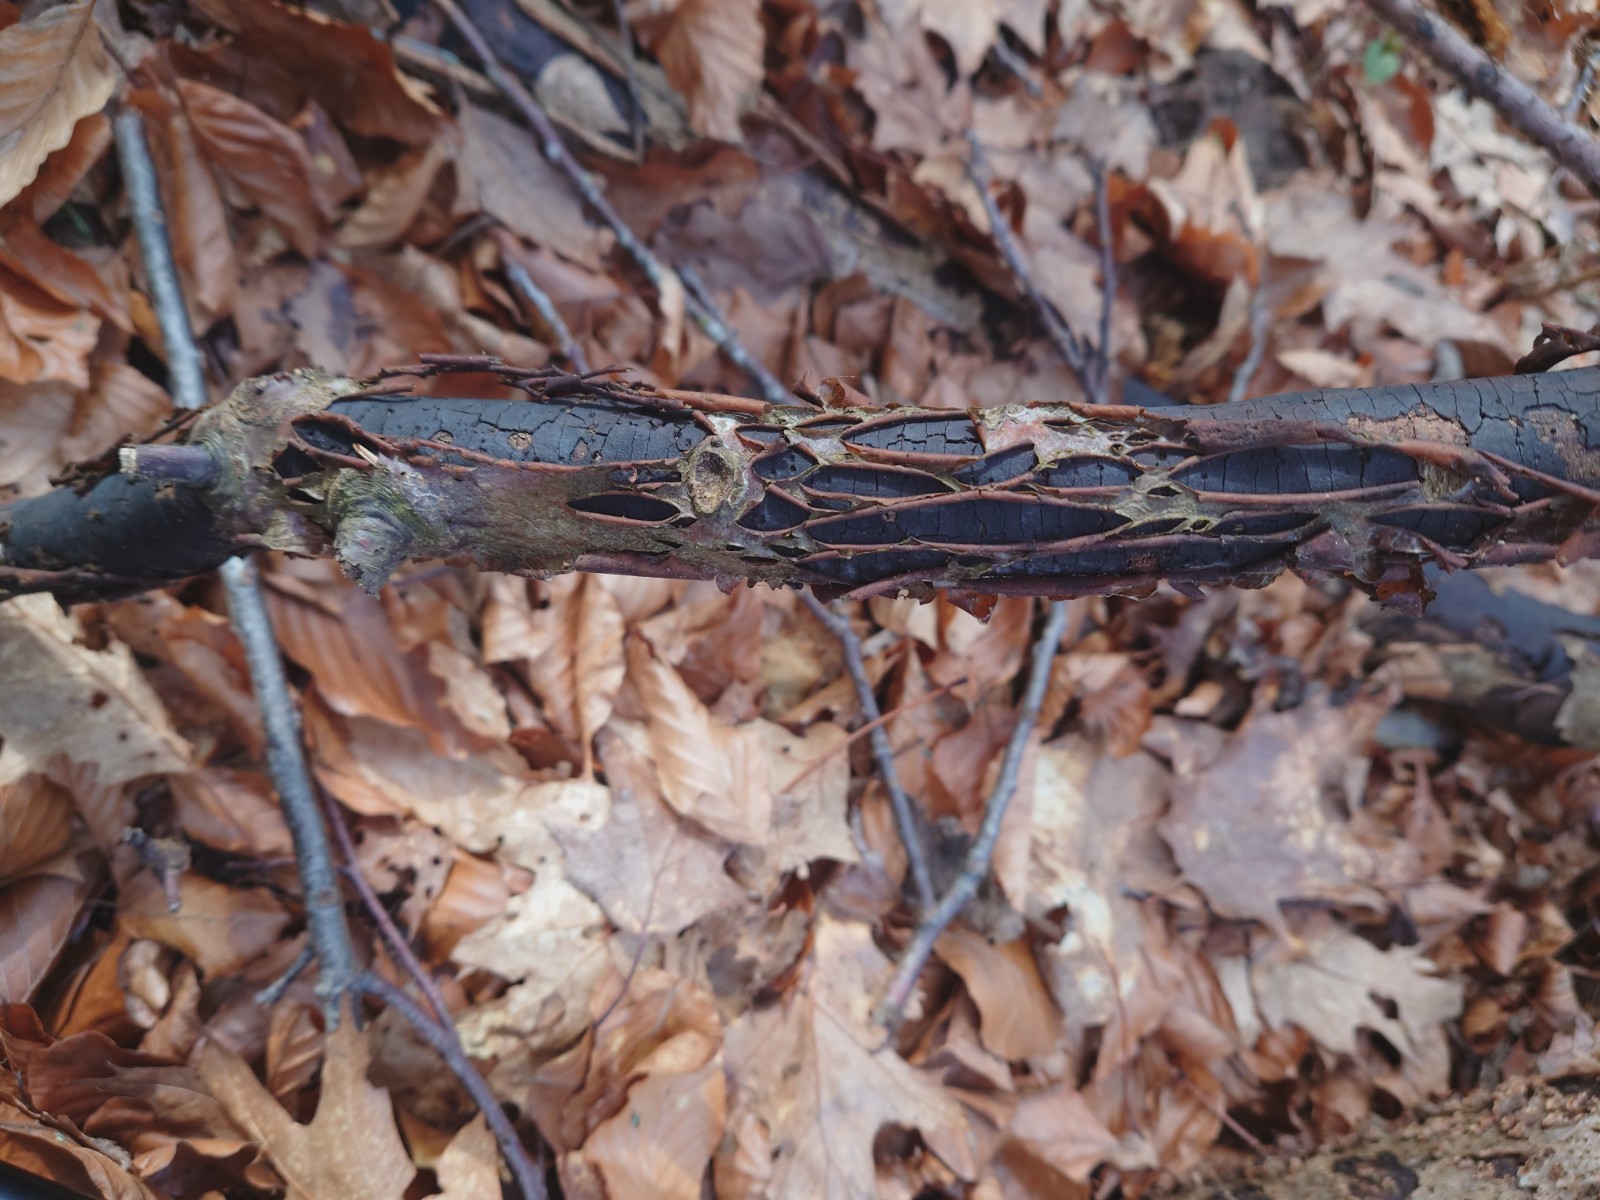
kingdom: Fungi
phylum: Ascomycota
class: Sordariomycetes
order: Xylariales
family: Diatrypaceae
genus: Diatrype
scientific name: Diatrype decorticata
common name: barksprænger-kulskorpe
